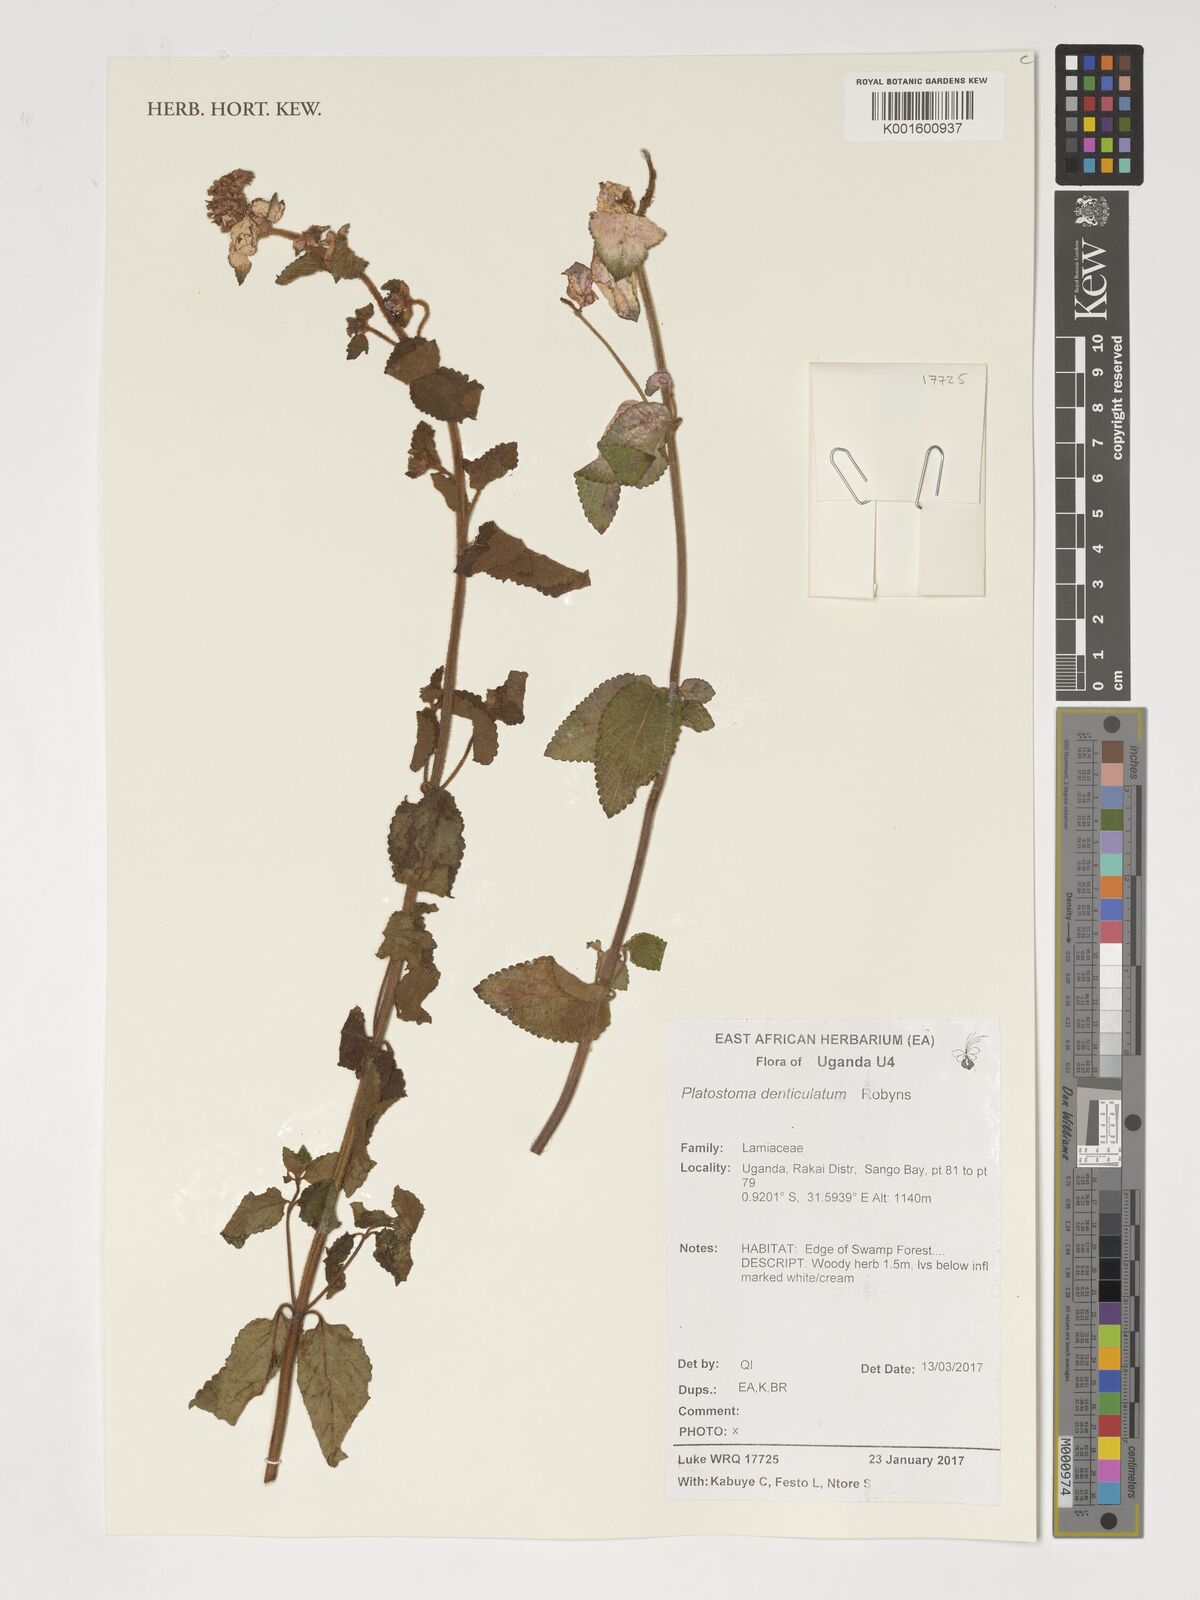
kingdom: Plantae
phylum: Tracheophyta
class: Magnoliopsida
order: Lamiales
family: Lamiaceae
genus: Platostoma
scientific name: Platostoma denticulatum
